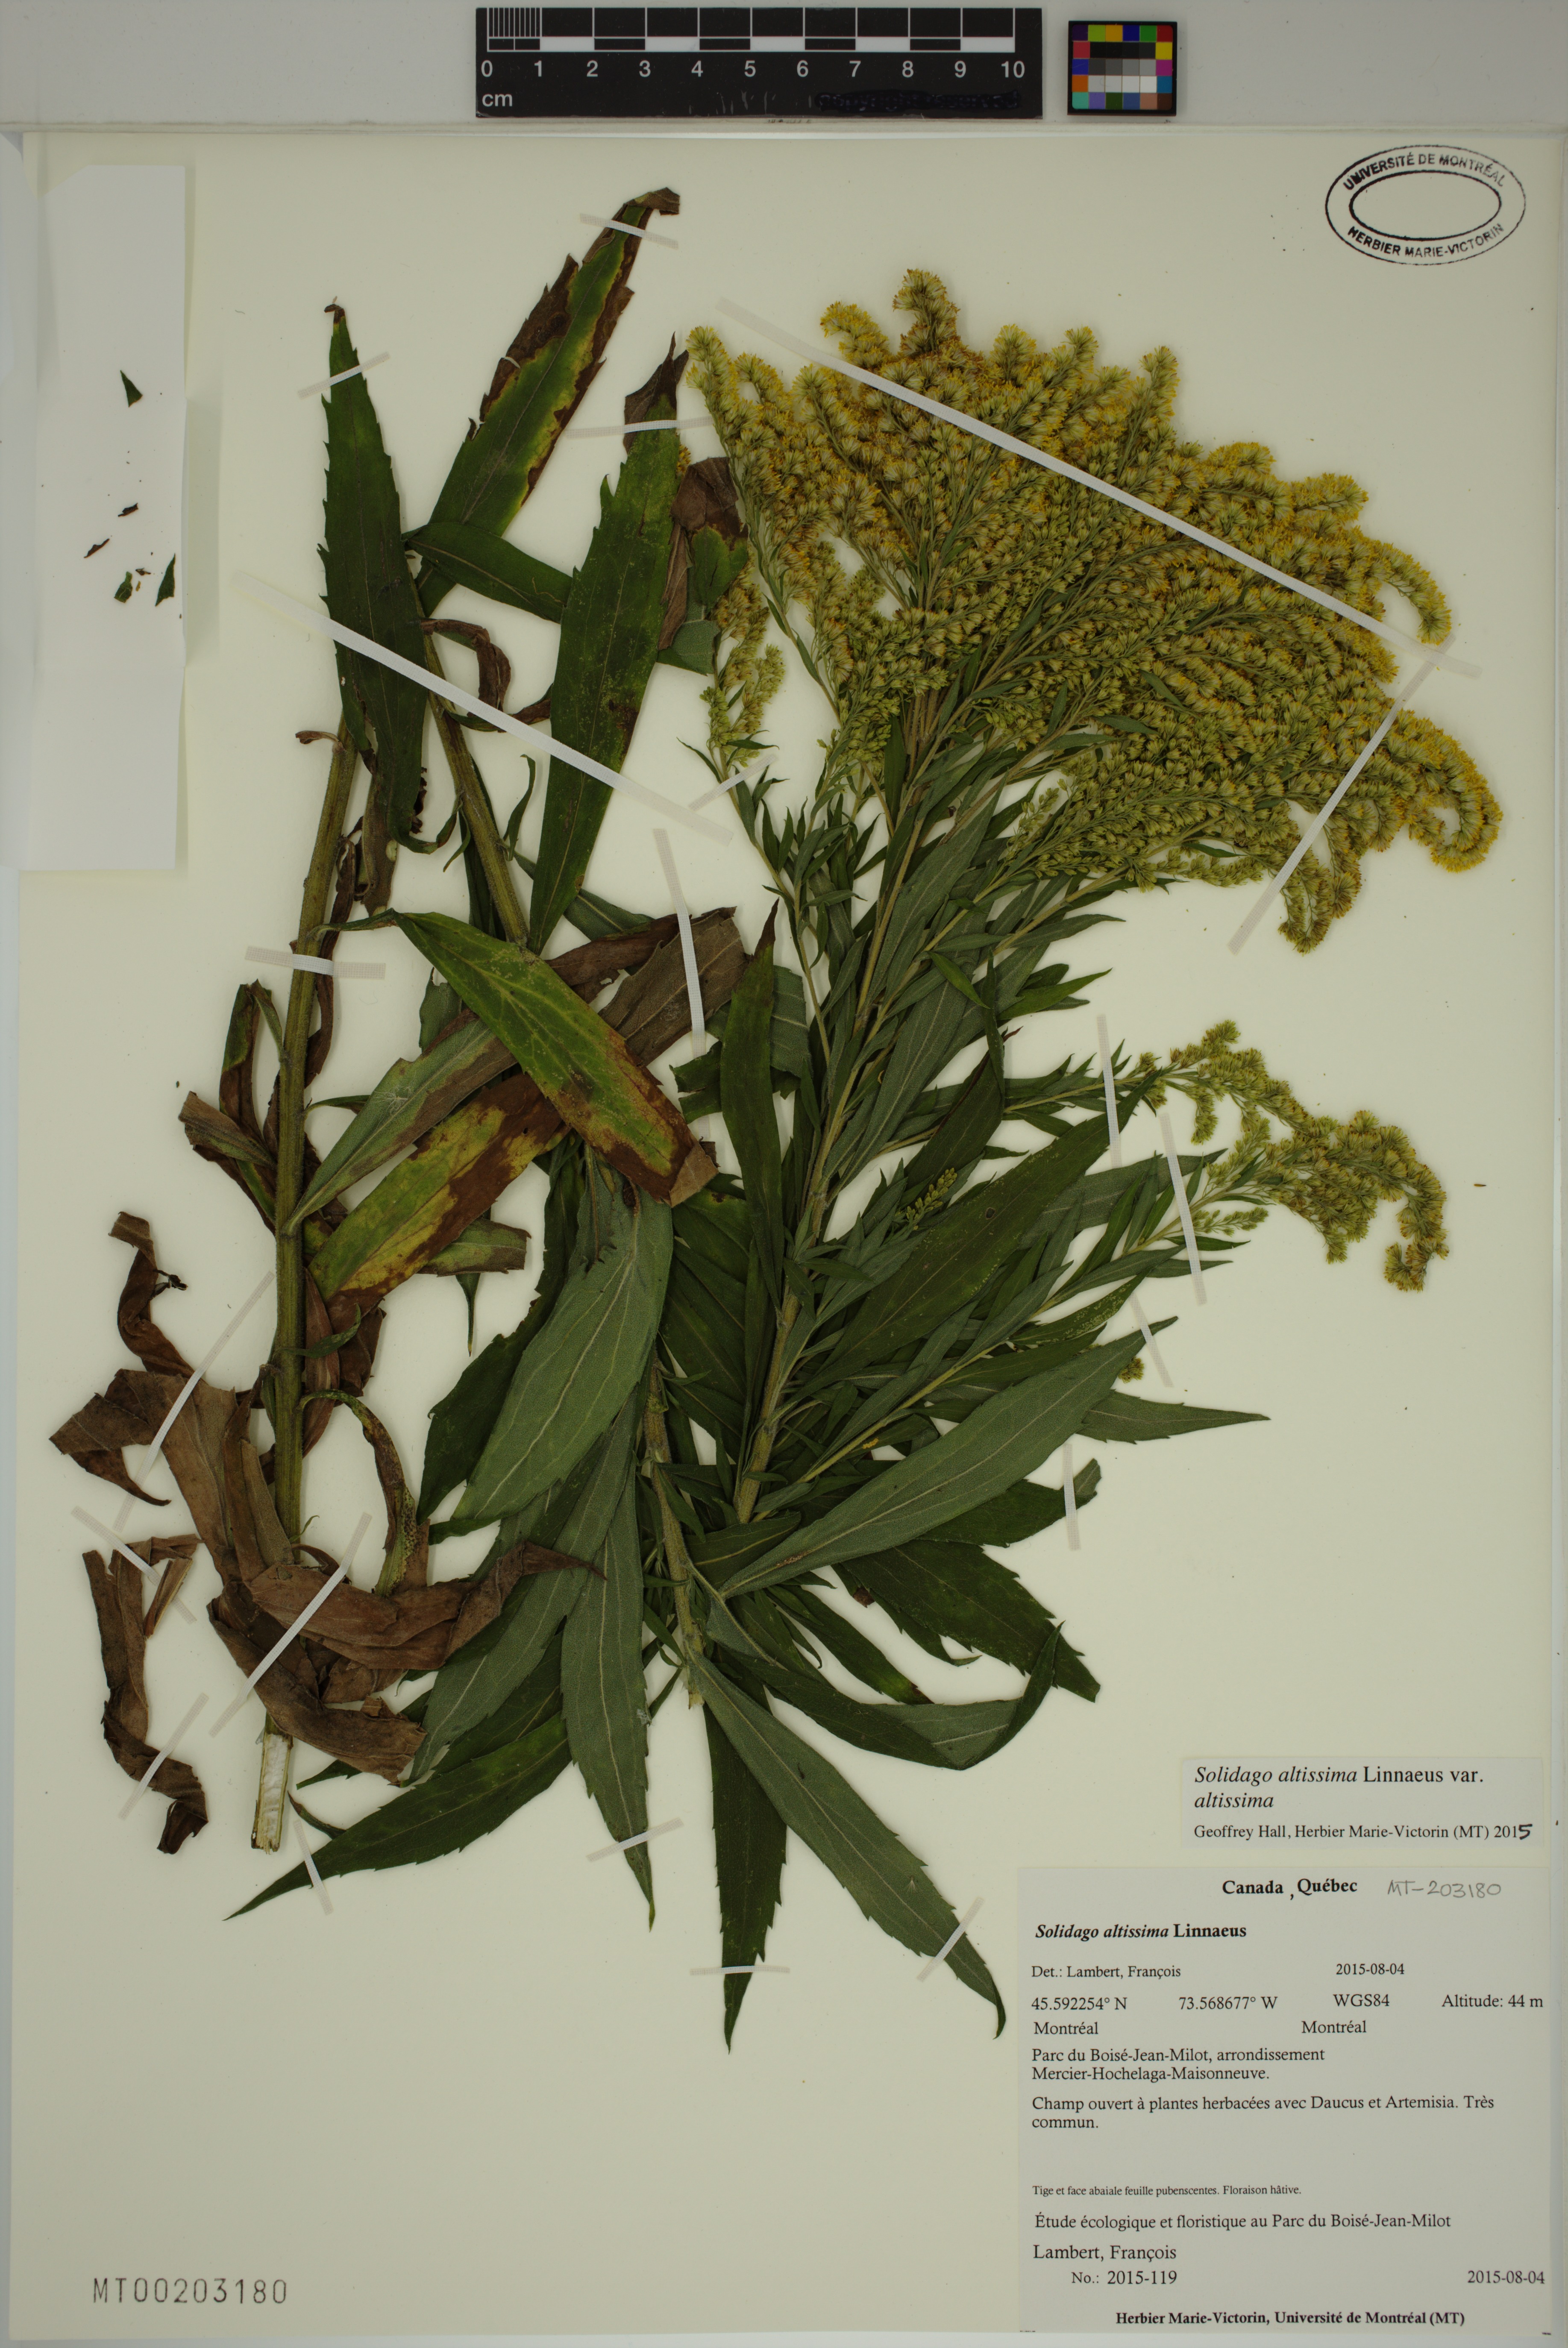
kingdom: Plantae
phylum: Tracheophyta
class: Magnoliopsida
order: Asterales
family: Asteraceae
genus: Solidago
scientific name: Solidago altissima
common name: Late goldenrod
